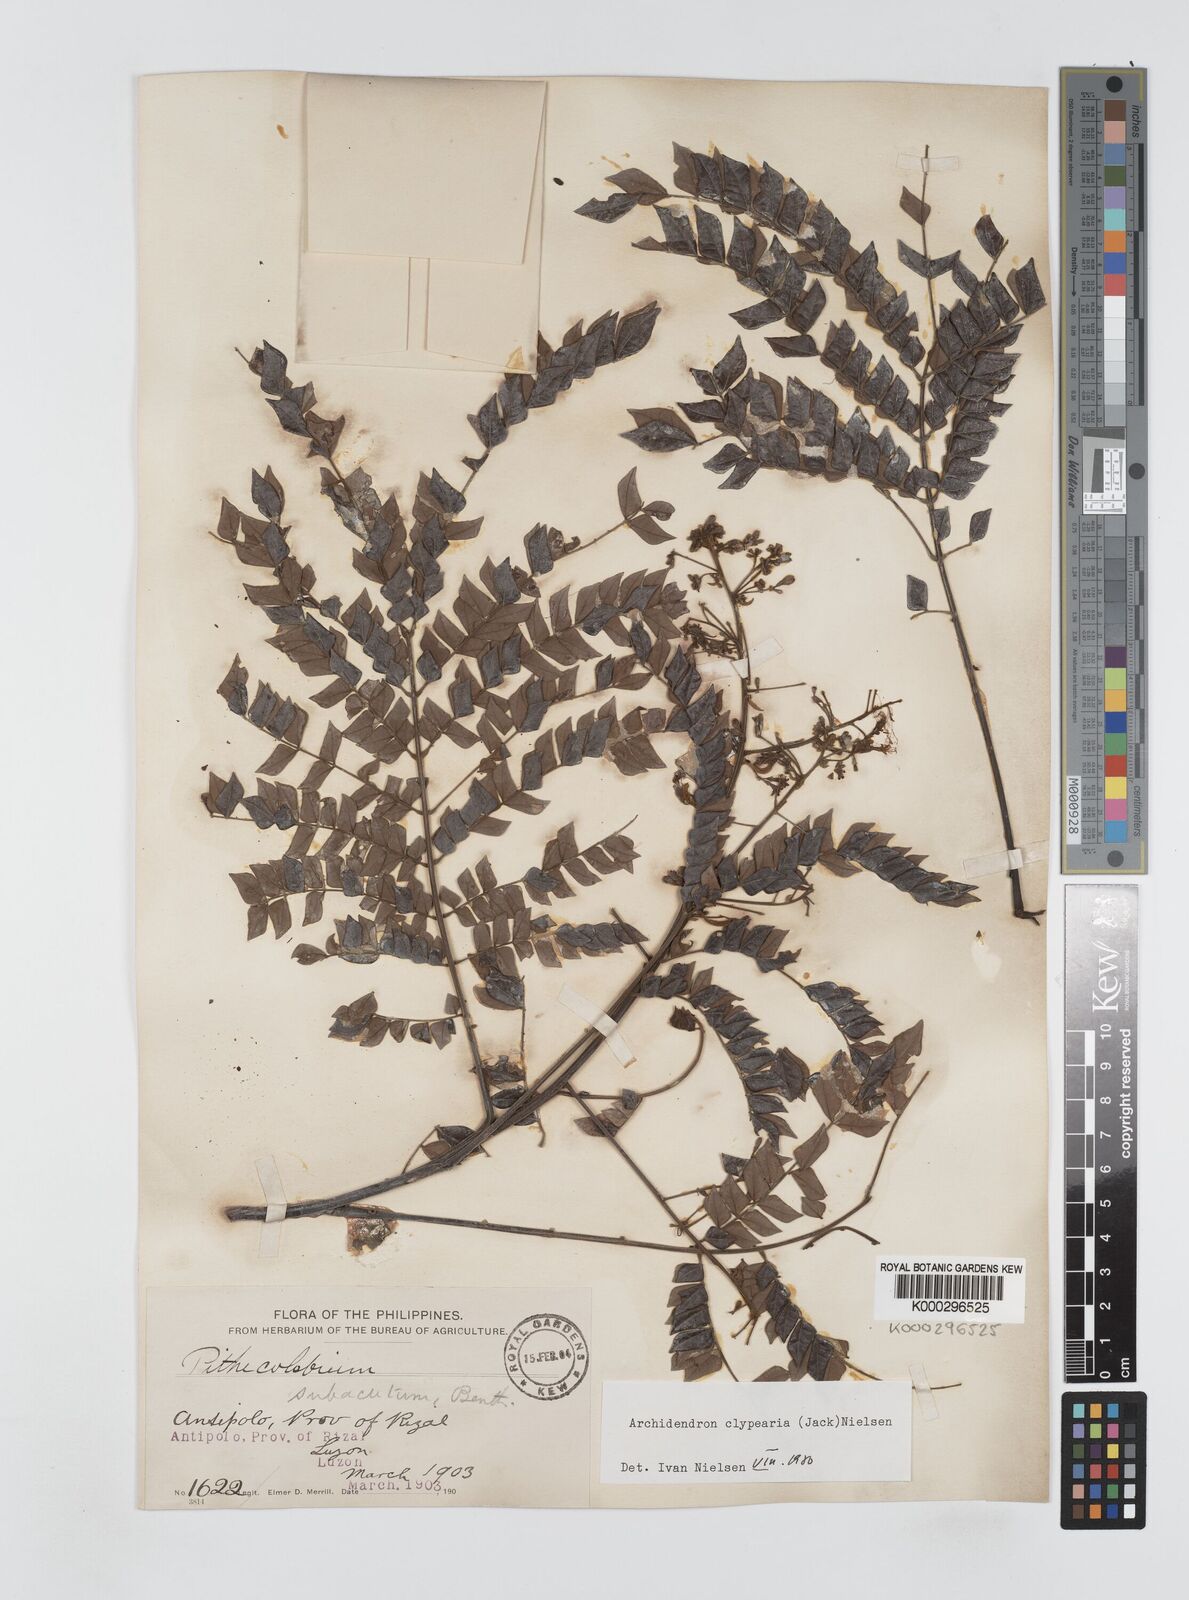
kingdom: Plantae
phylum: Tracheophyta
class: Magnoliopsida
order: Fabales
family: Fabaceae
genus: Archidendron
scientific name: Archidendron clypearia
